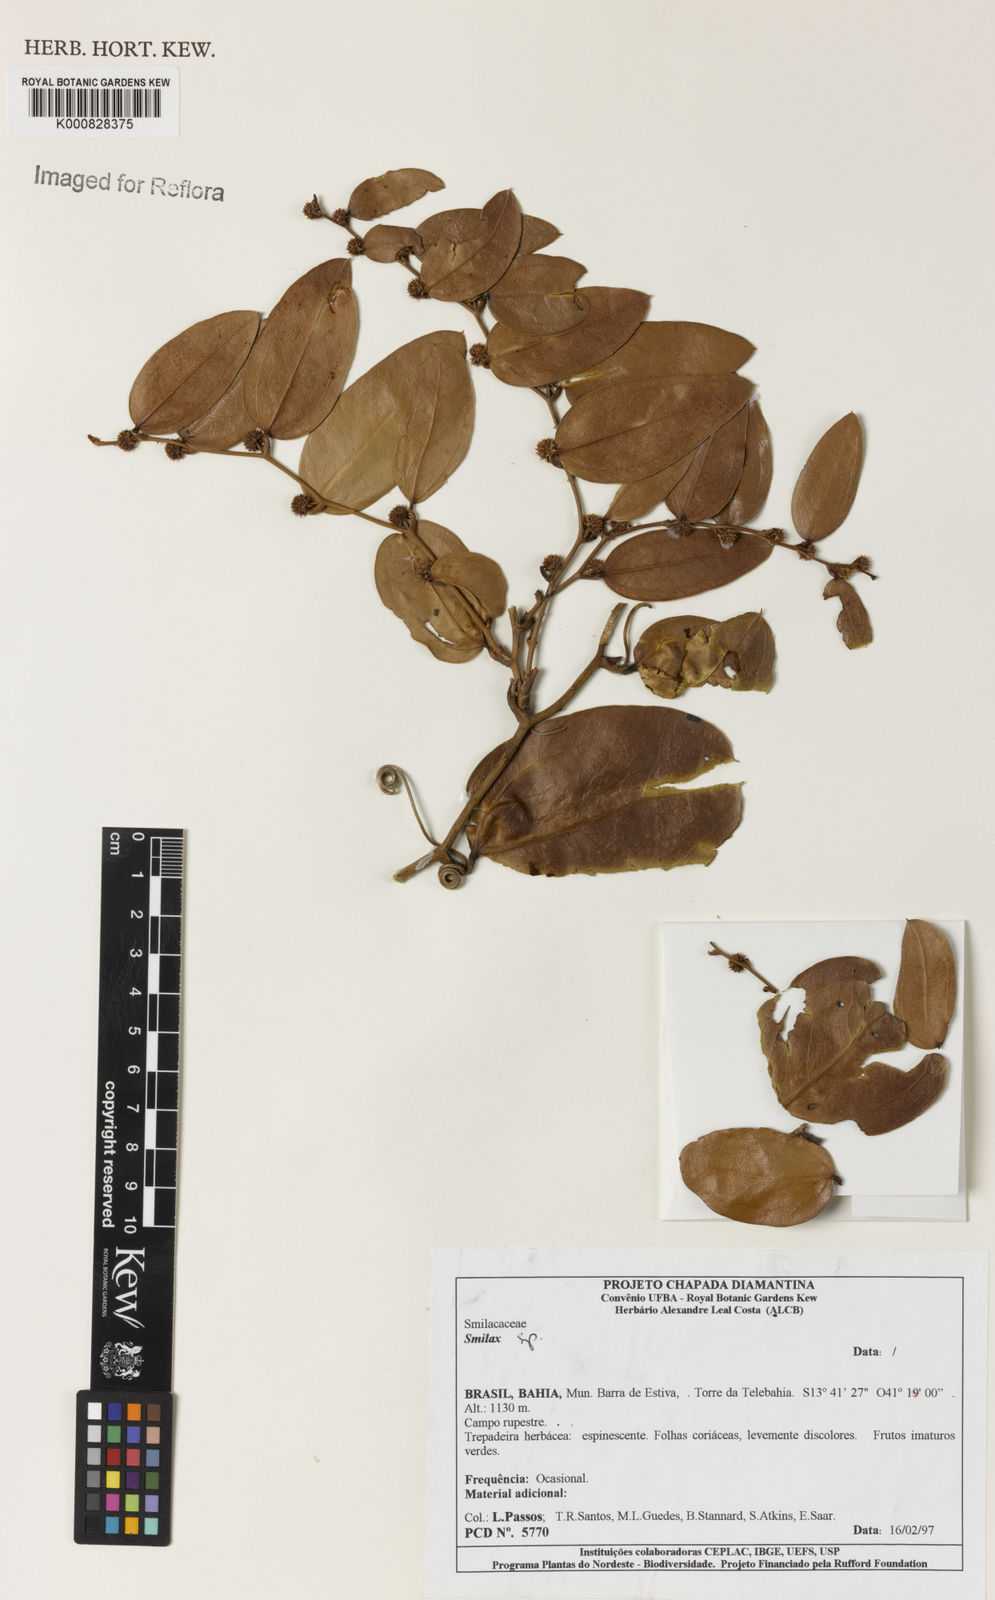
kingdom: Plantae
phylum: Tracheophyta
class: Liliopsida
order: Liliales
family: Smilacaceae
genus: Smilax
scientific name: Smilax
